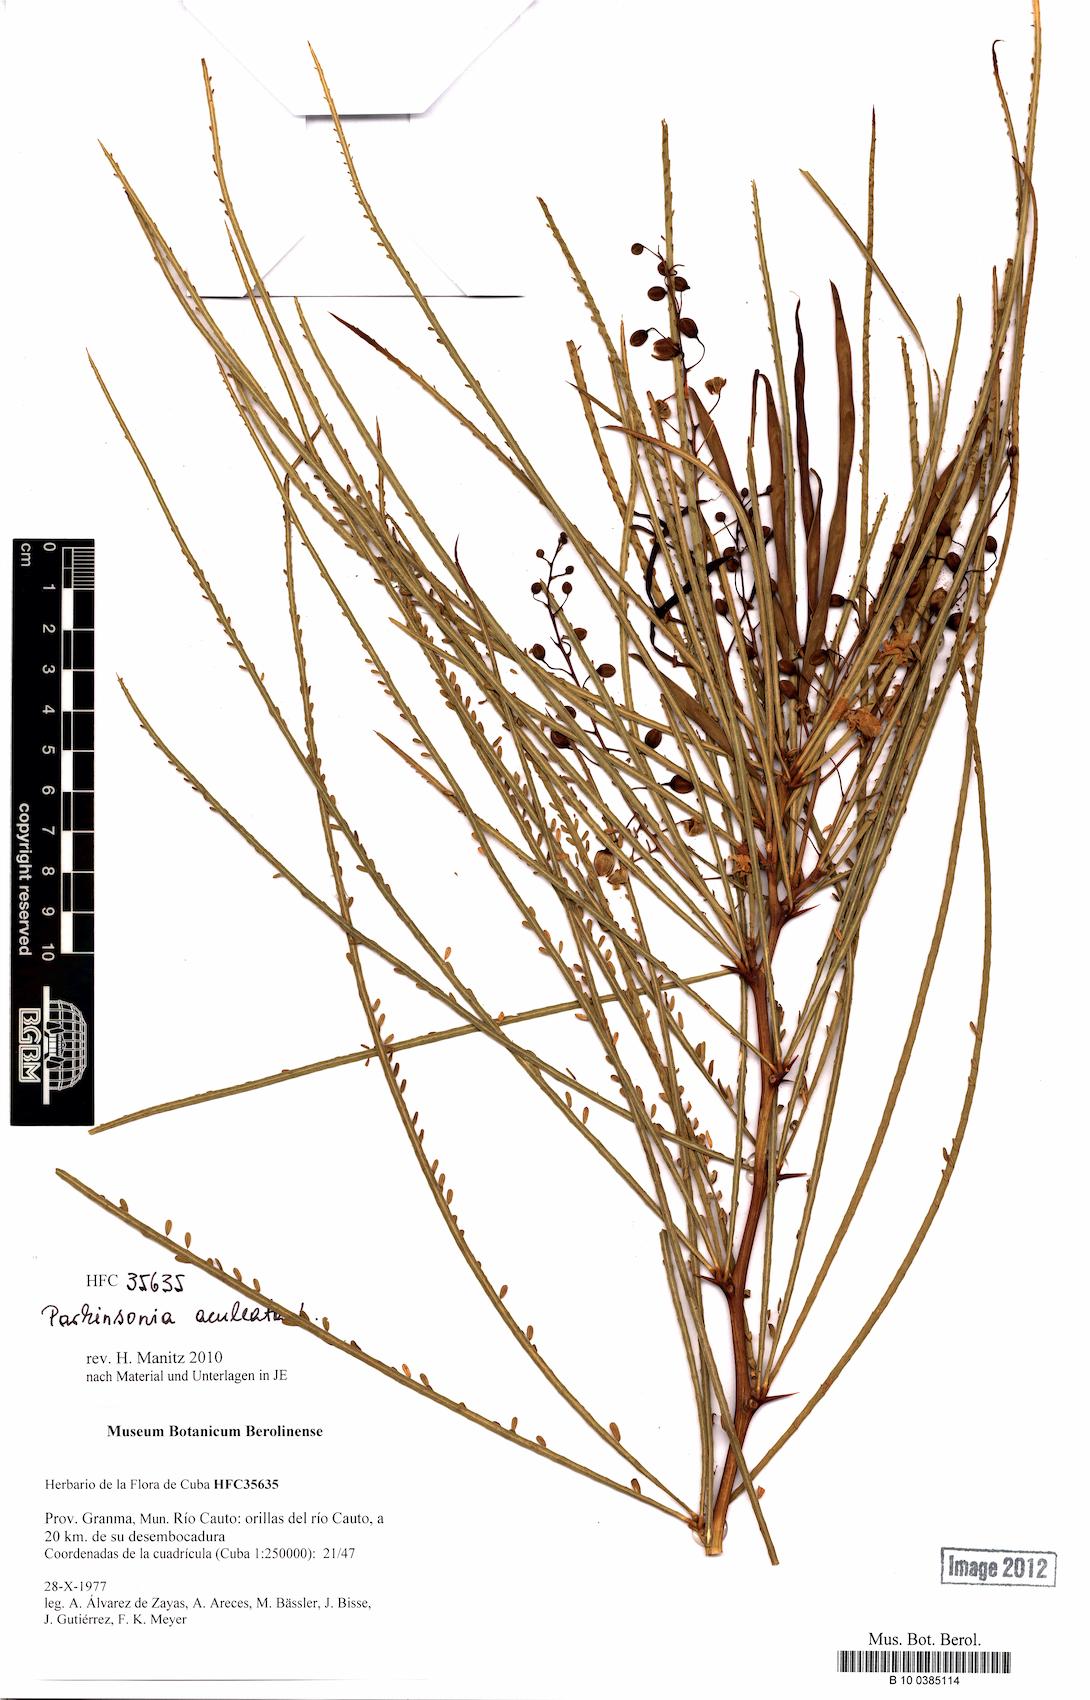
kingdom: Plantae
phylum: Tracheophyta
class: Magnoliopsida
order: Fabales
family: Fabaceae
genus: Parkinsonia
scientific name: Parkinsonia aculeata
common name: Jerusalem thorn
